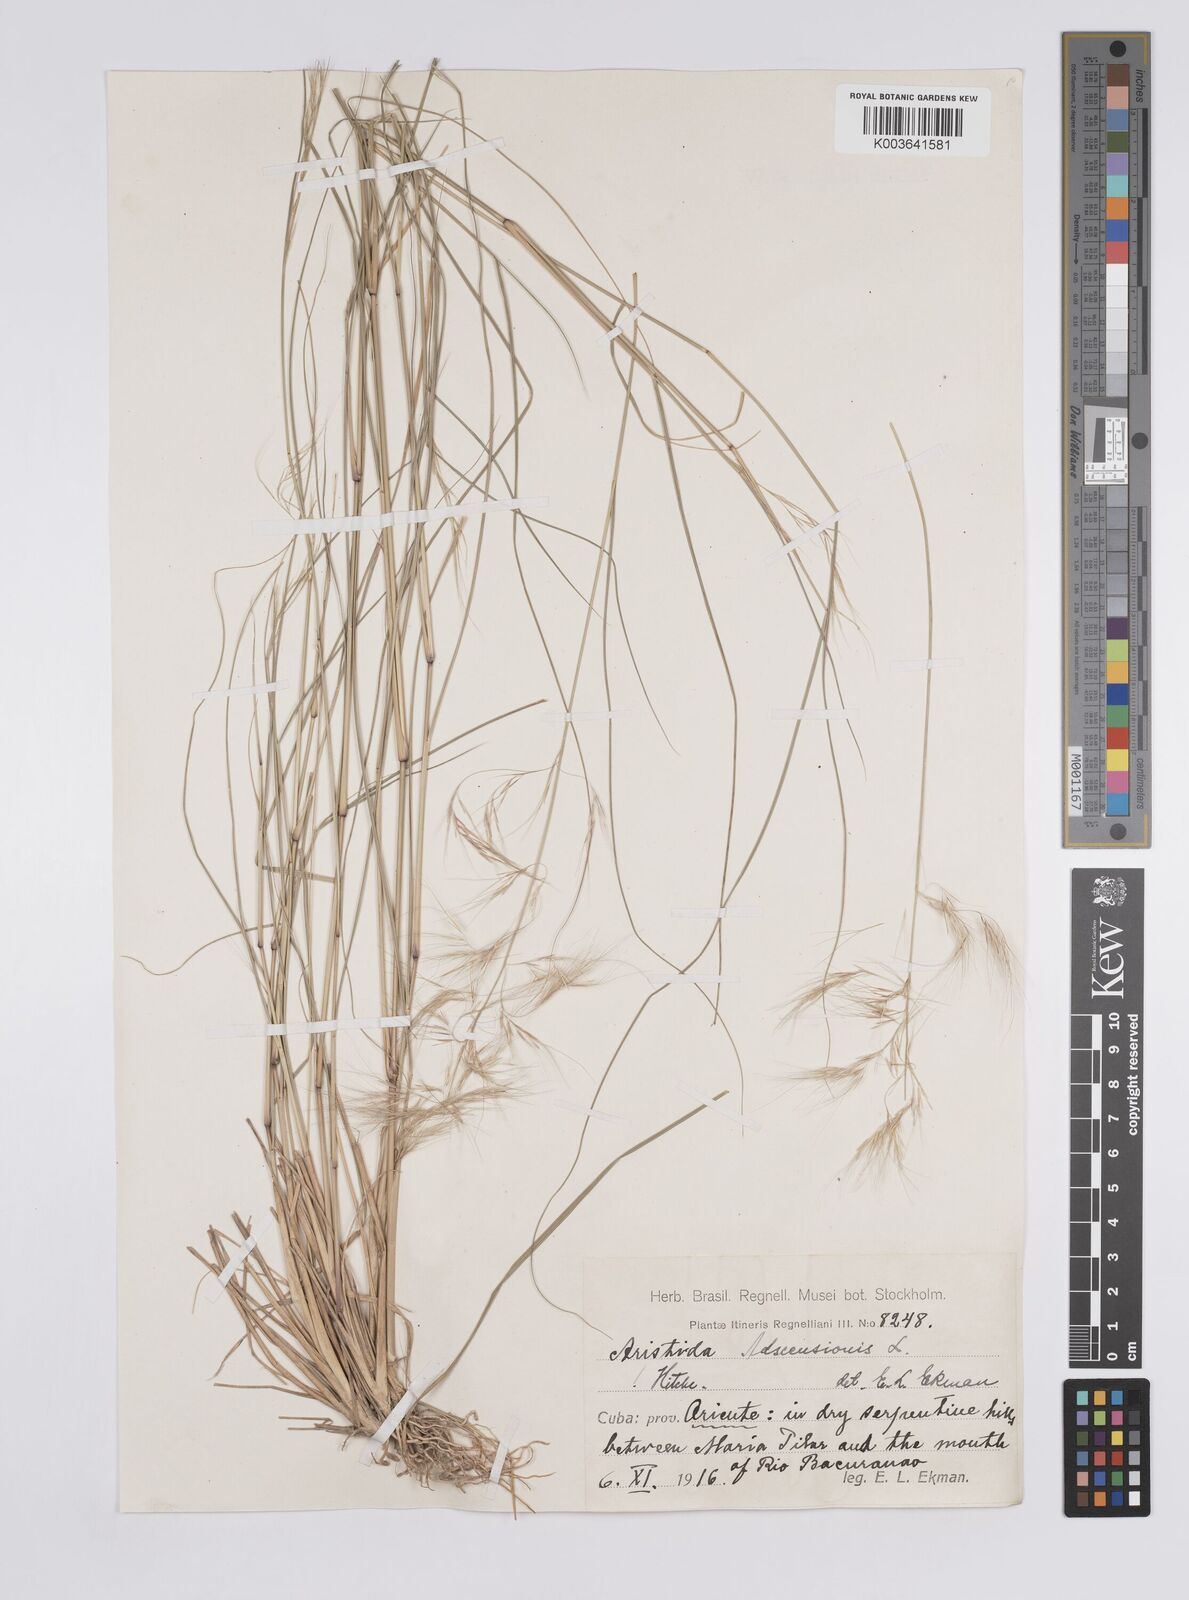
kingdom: Plantae
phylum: Tracheophyta
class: Liliopsida
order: Poales
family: Poaceae
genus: Aristida
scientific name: Aristida adscensionis
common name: Sixweeks threeawn
